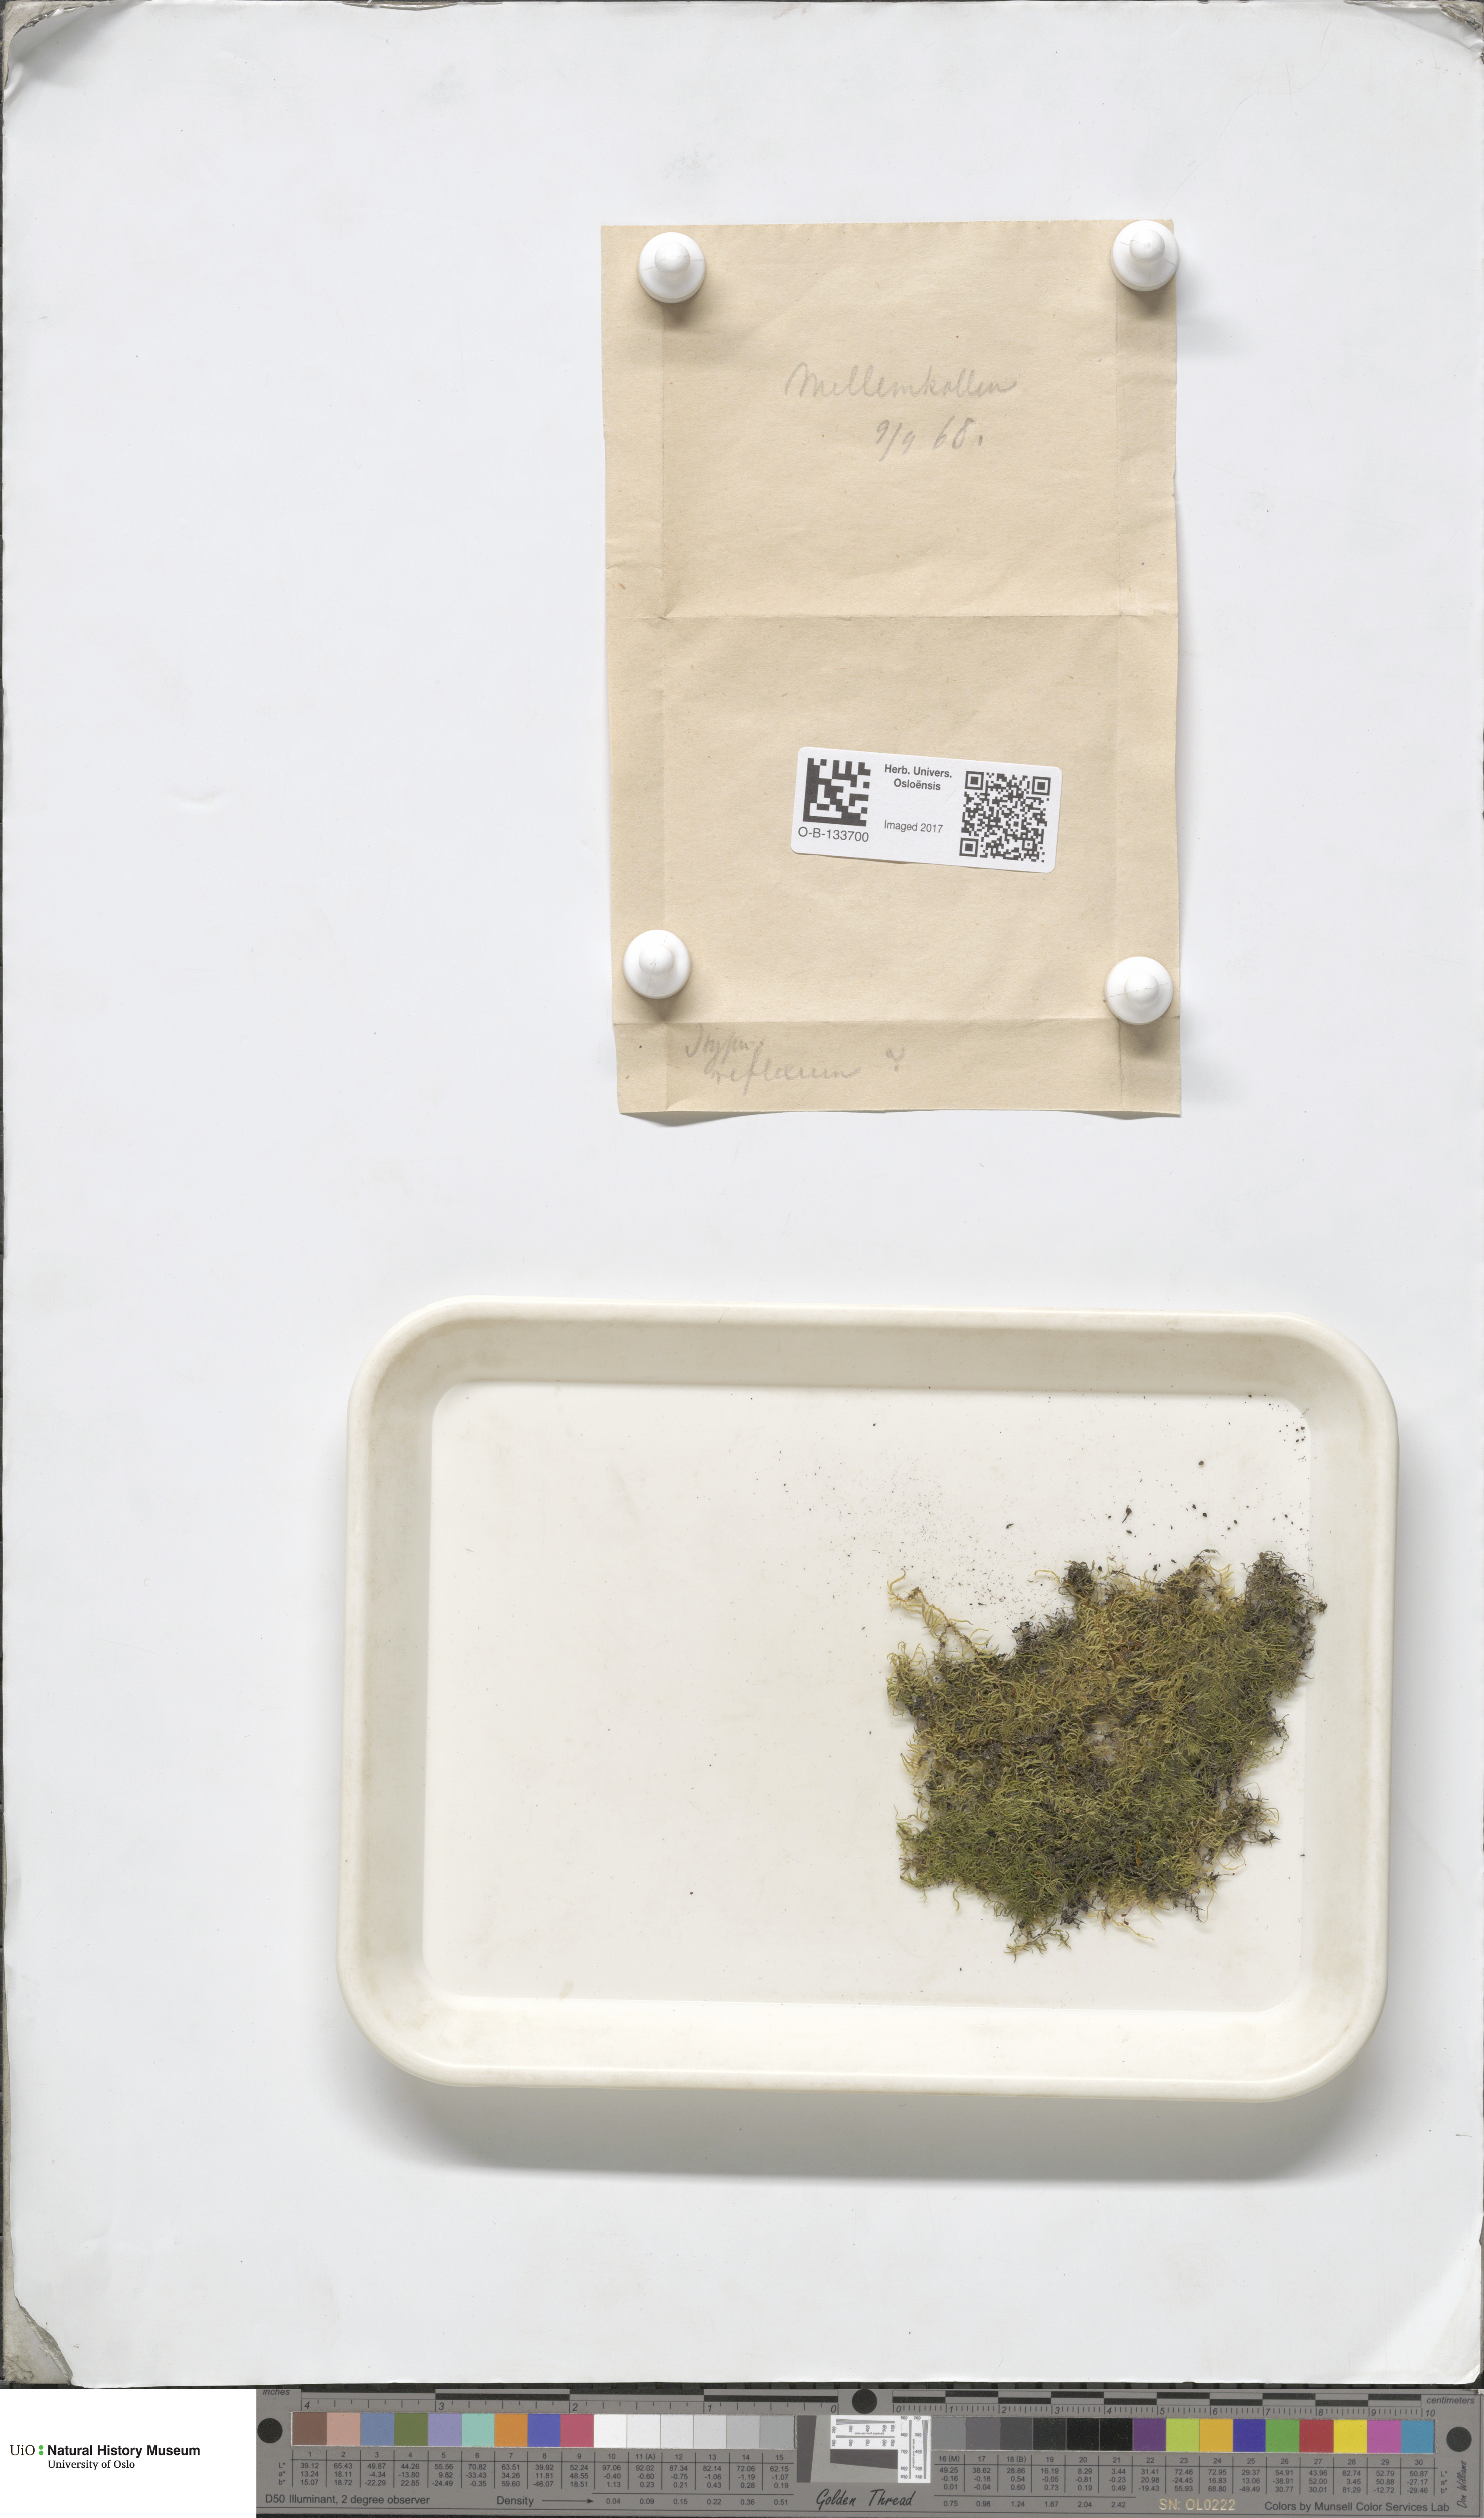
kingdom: Plantae
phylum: Bryophyta
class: Bryopsida
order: Hypnales
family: Brachytheciaceae
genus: Sciuro-hypnum
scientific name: Sciuro-hypnum reflexum
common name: Reflexed feather-moss
